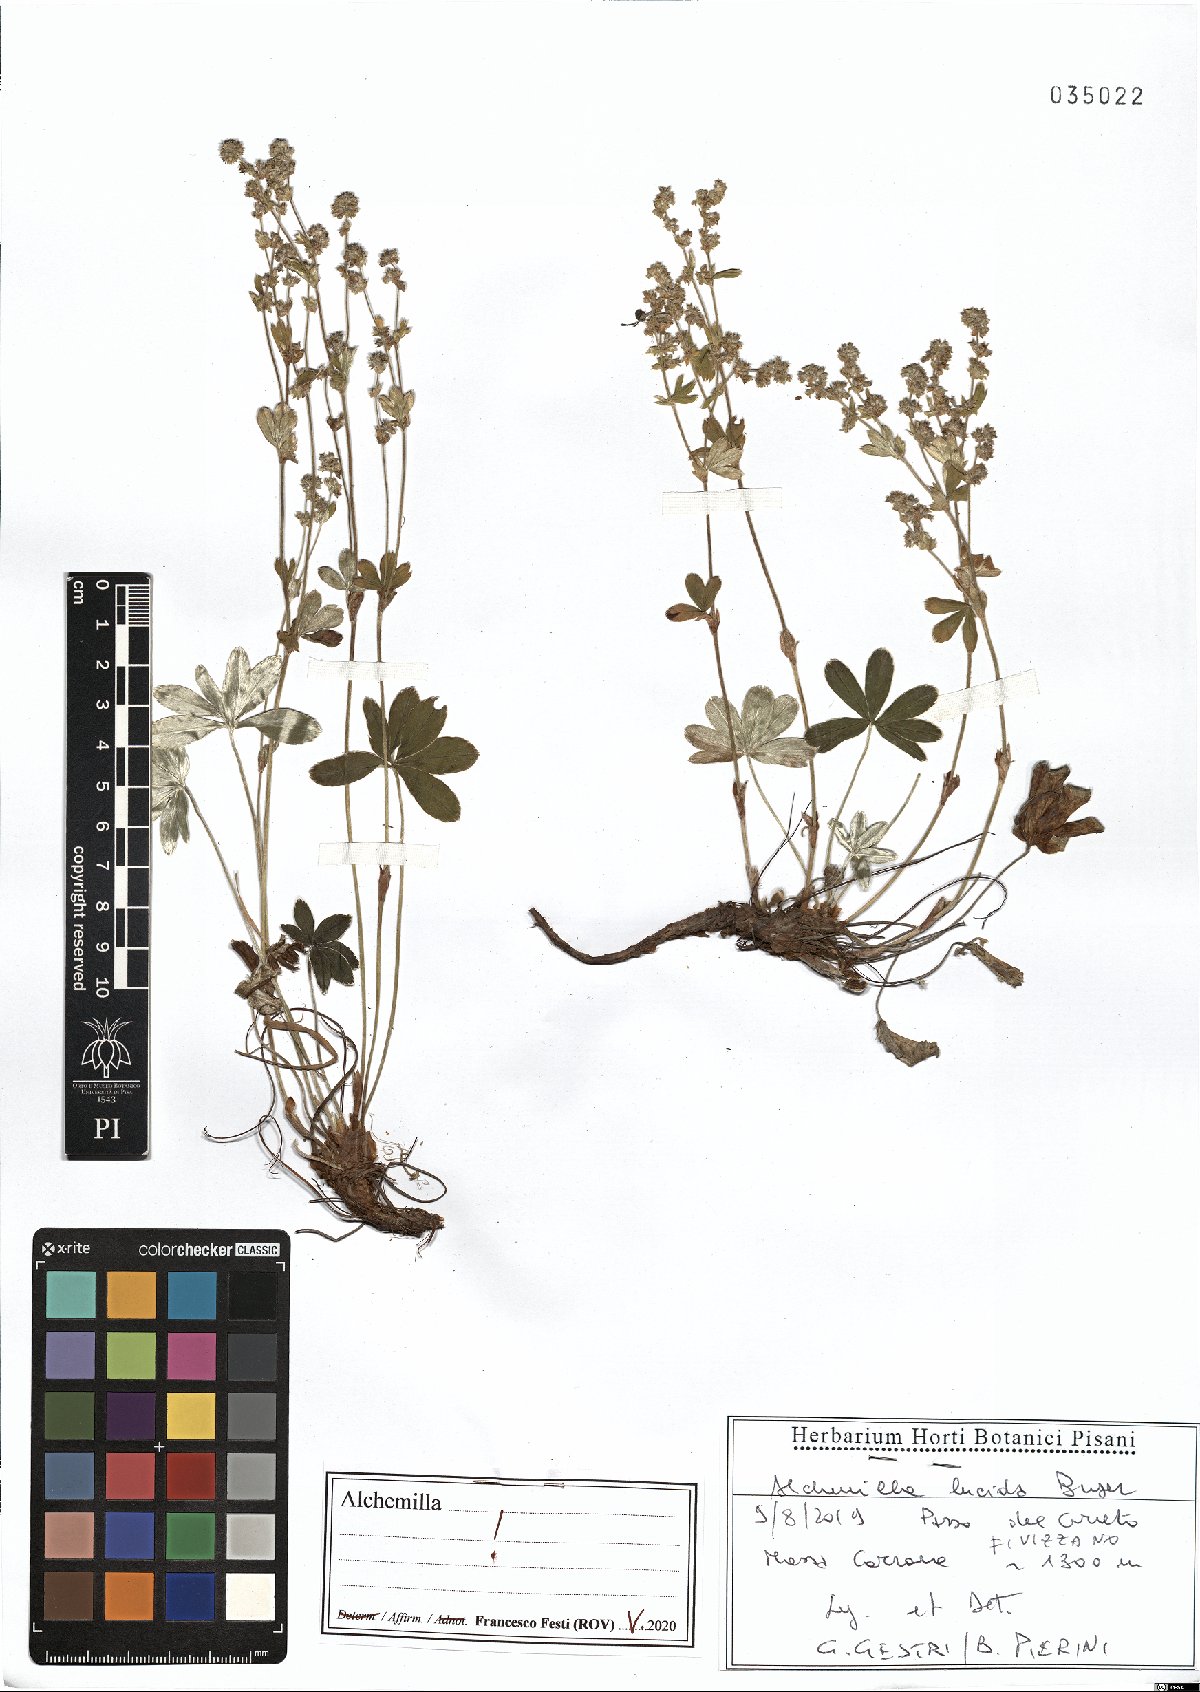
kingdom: Plantae
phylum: Tracheophyta
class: Magnoliopsida
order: Rosales
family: Rosaceae
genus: Alchemilla
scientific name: Alchemilla lucida
